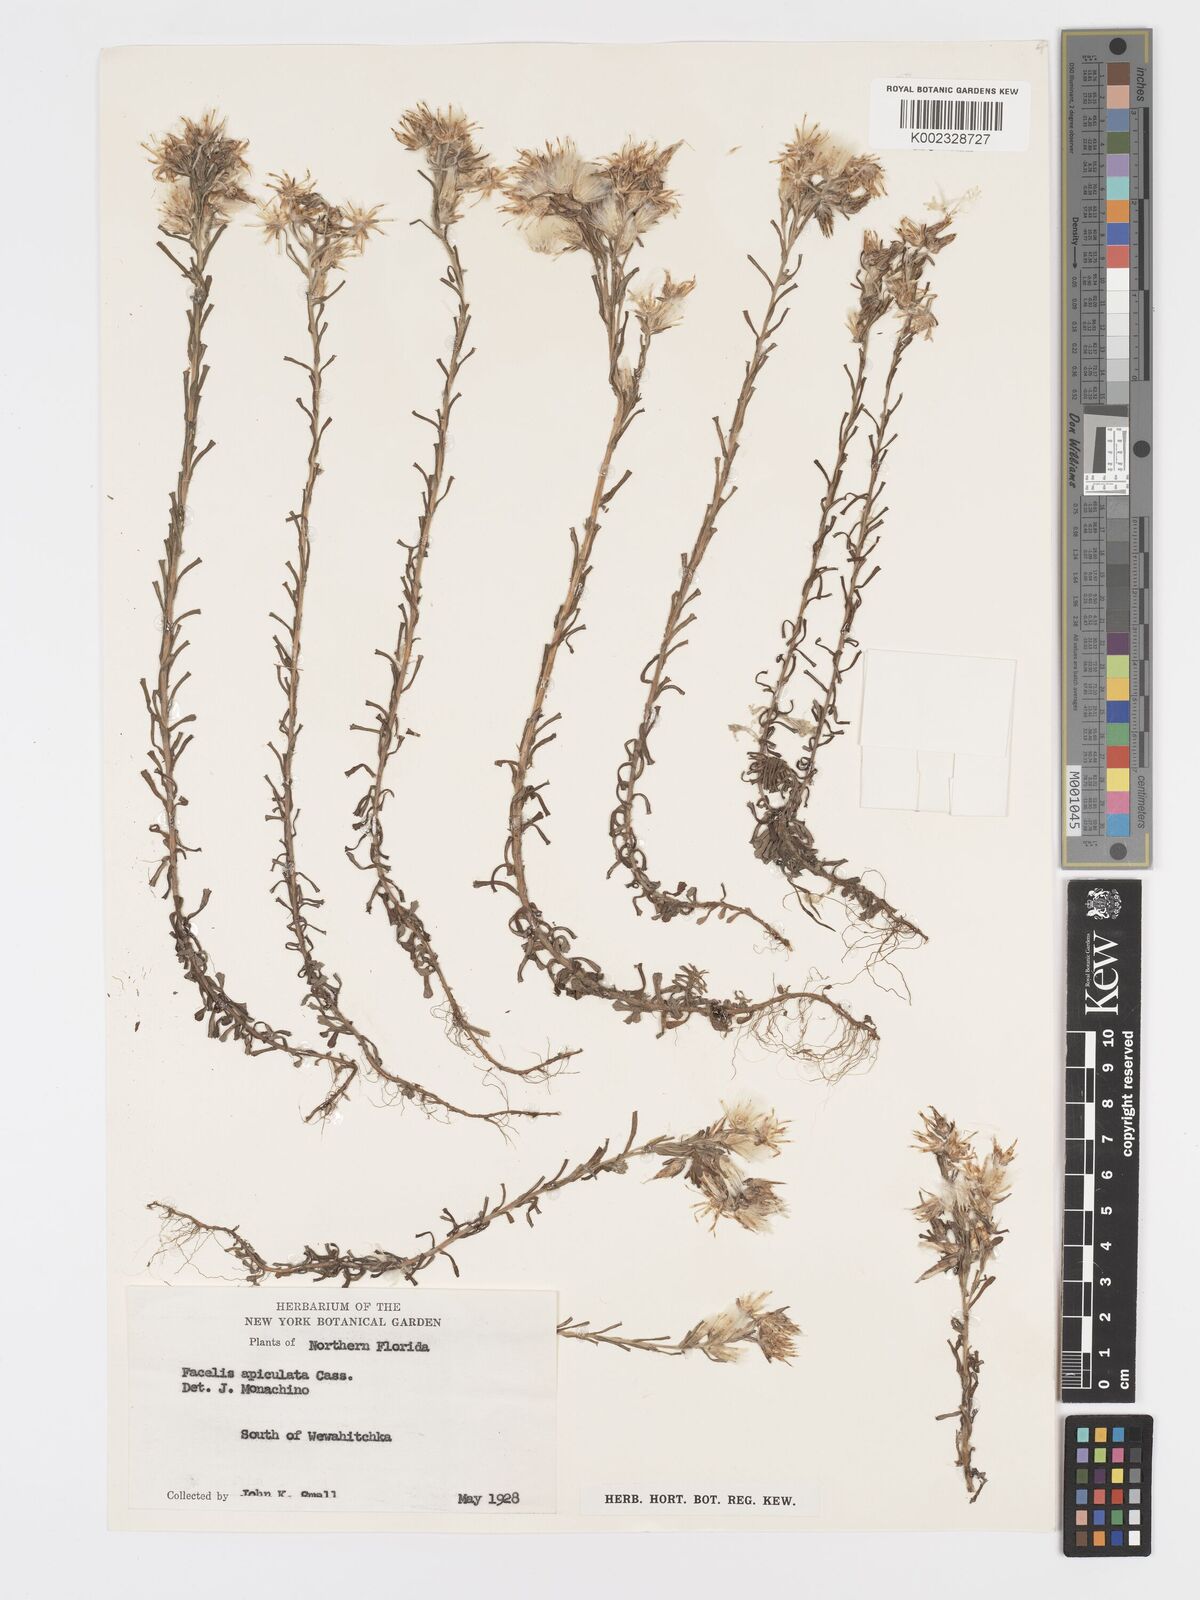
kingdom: Plantae
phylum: Tracheophyta
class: Magnoliopsida
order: Asterales
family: Asteraceae
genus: Facelis
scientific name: Facelis retusa
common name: Annual trampweed
